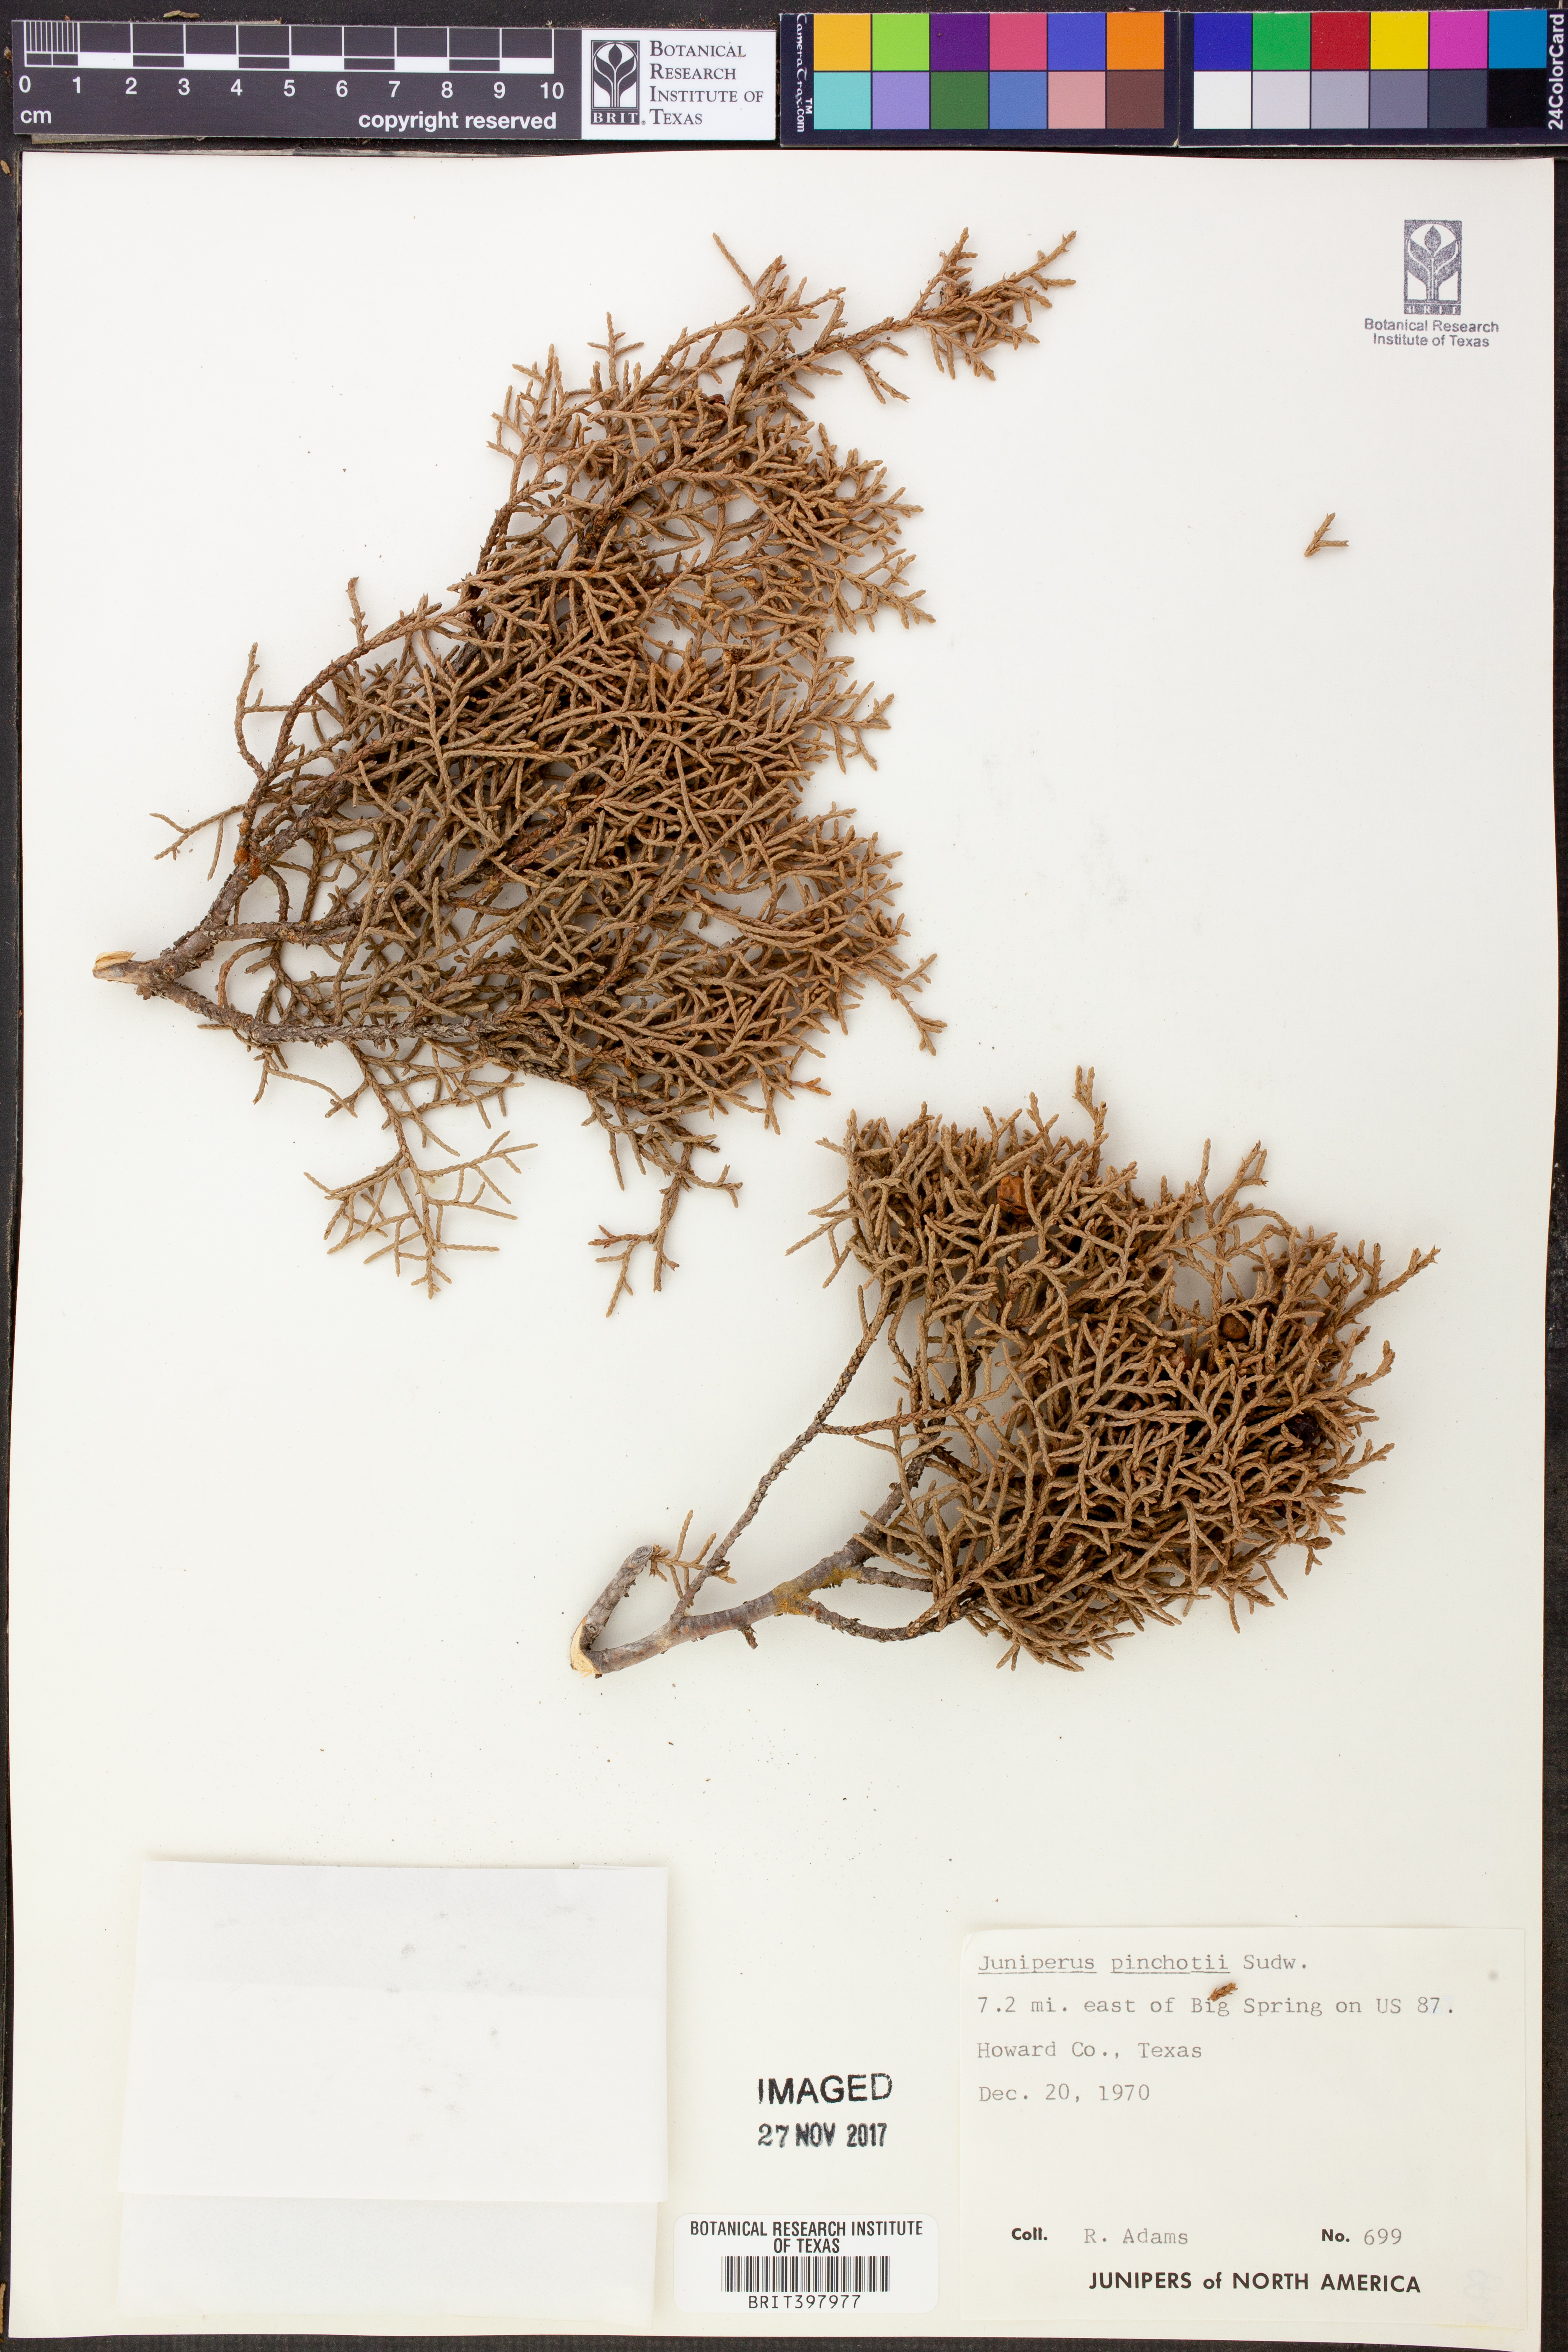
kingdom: Plantae
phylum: Tracheophyta
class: Pinopsida
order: Pinales
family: Cupressaceae
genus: Juniperus
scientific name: Juniperus pinchotii
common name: Pinchot juniper
